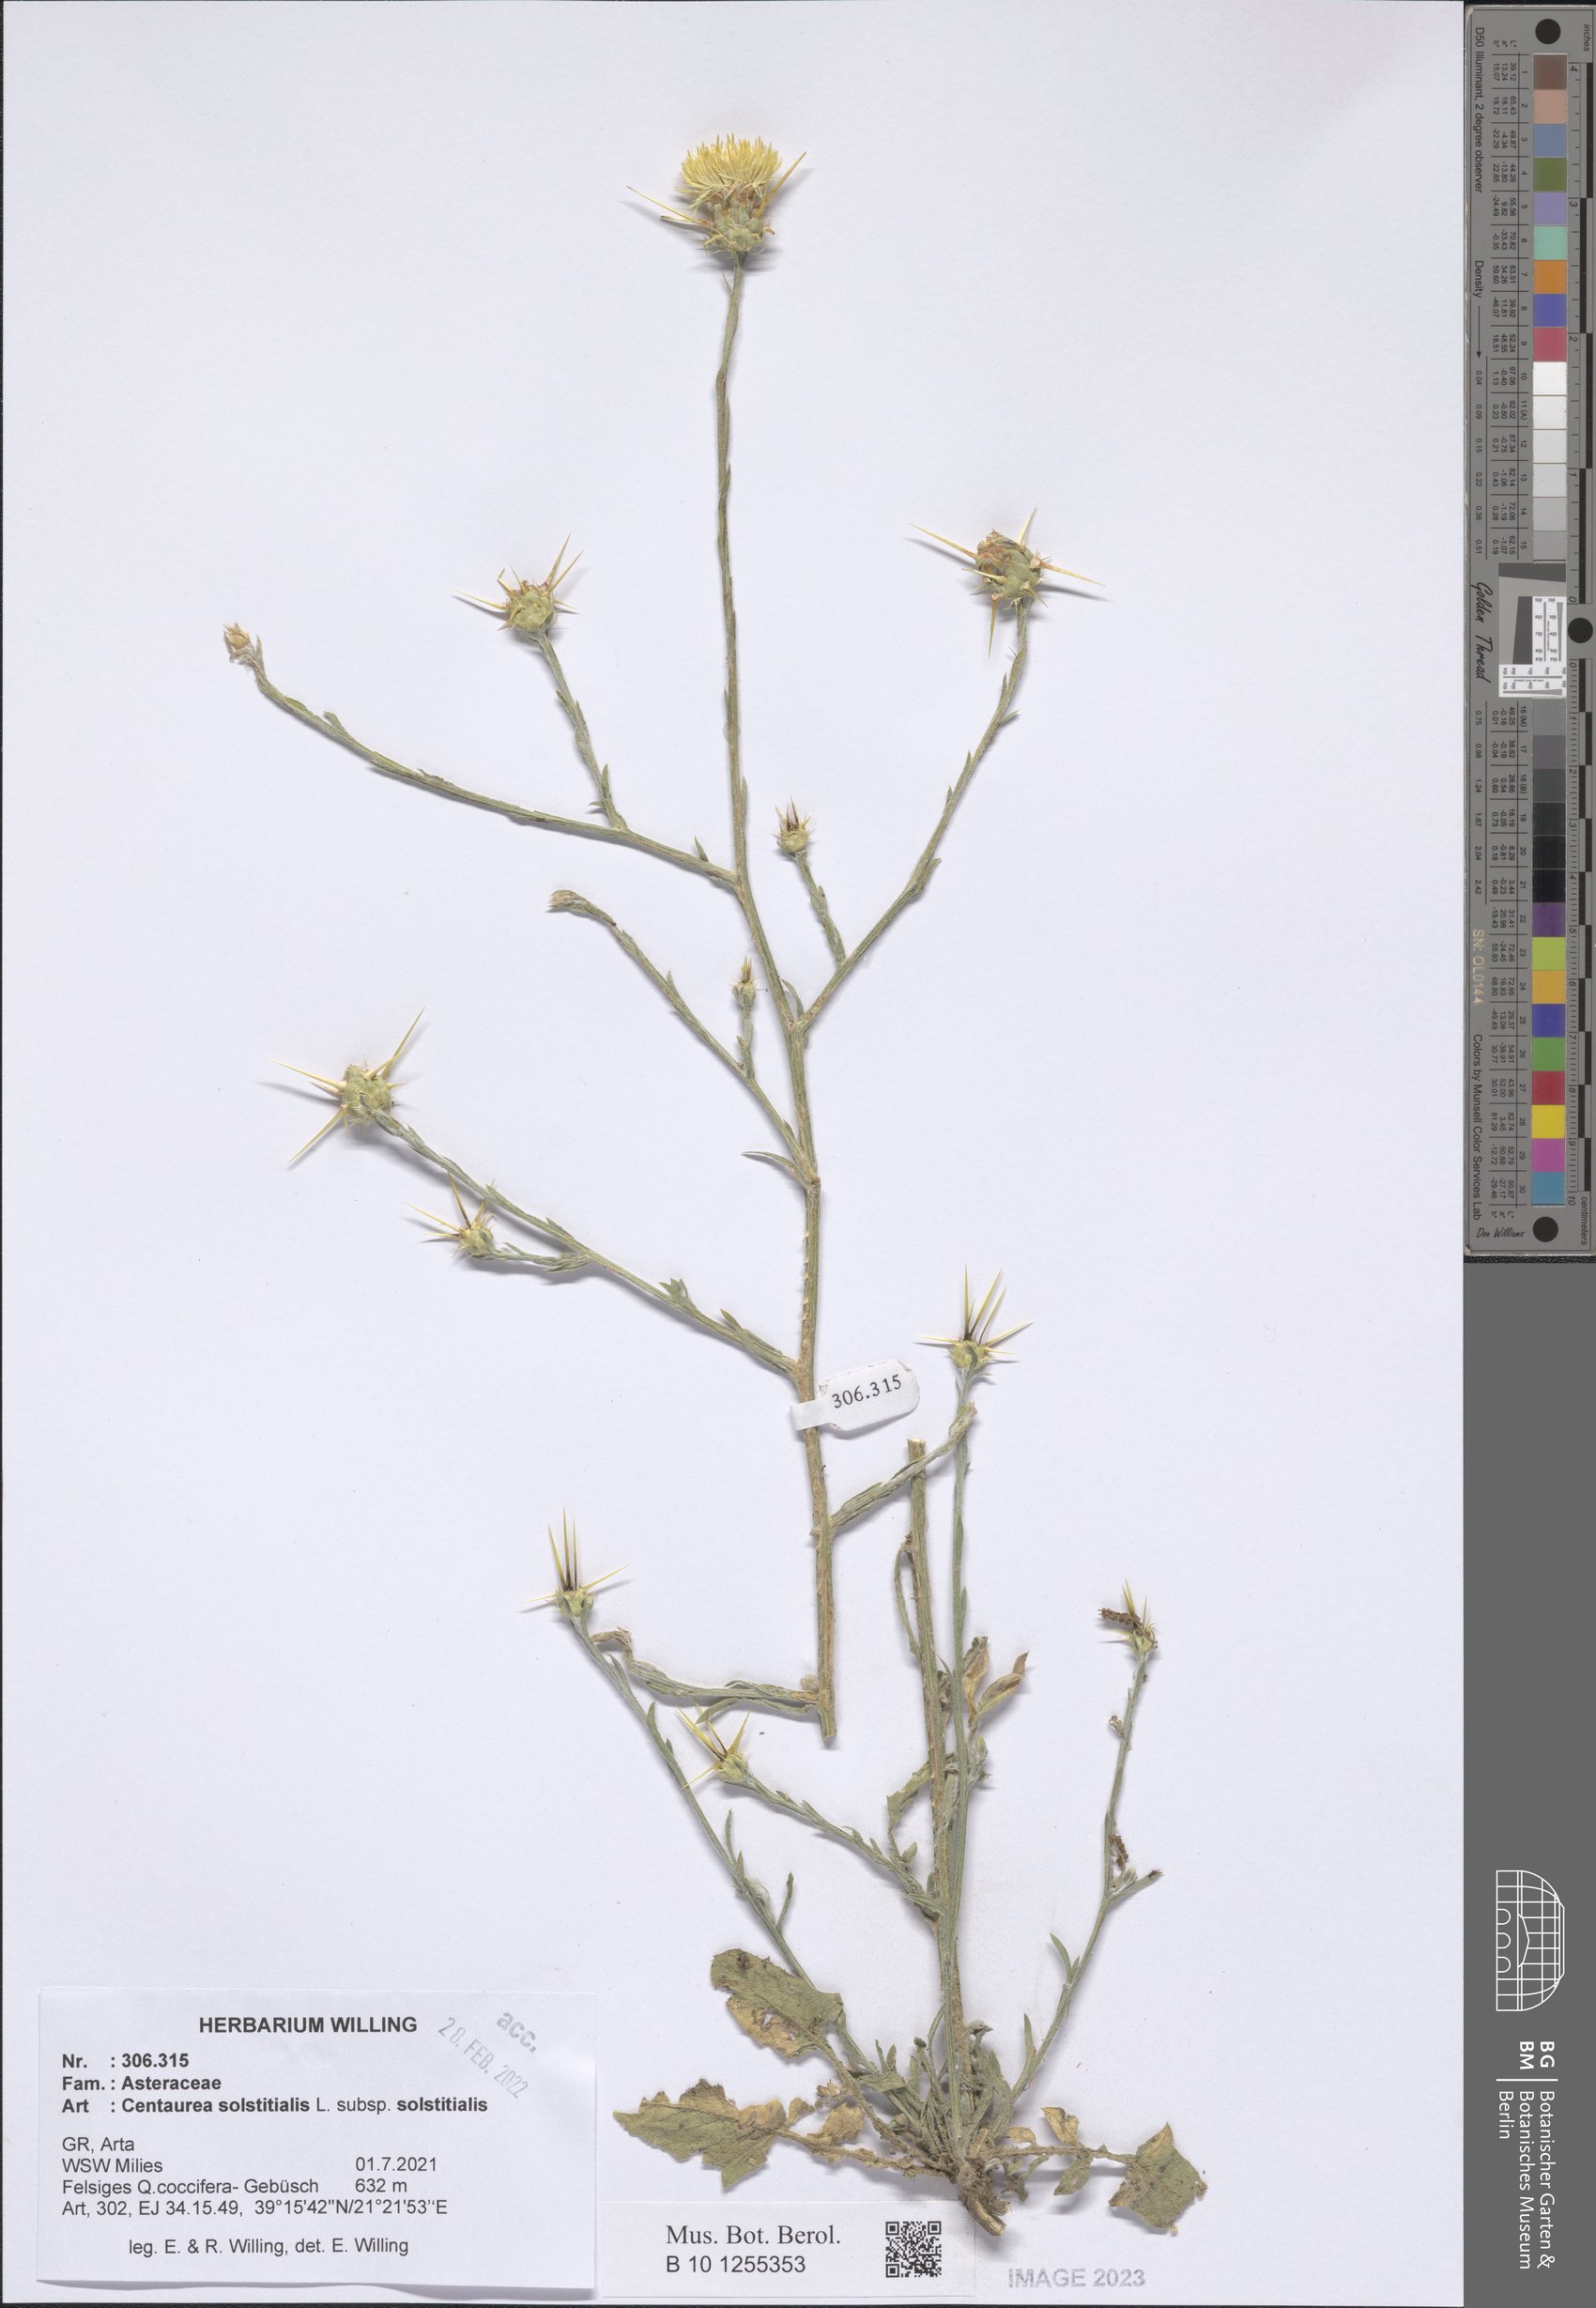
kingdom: Plantae
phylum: Tracheophyta
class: Magnoliopsida
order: Asterales
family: Asteraceae
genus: Centaurea
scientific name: Centaurea solstitialis
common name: Yellow star-thistle
